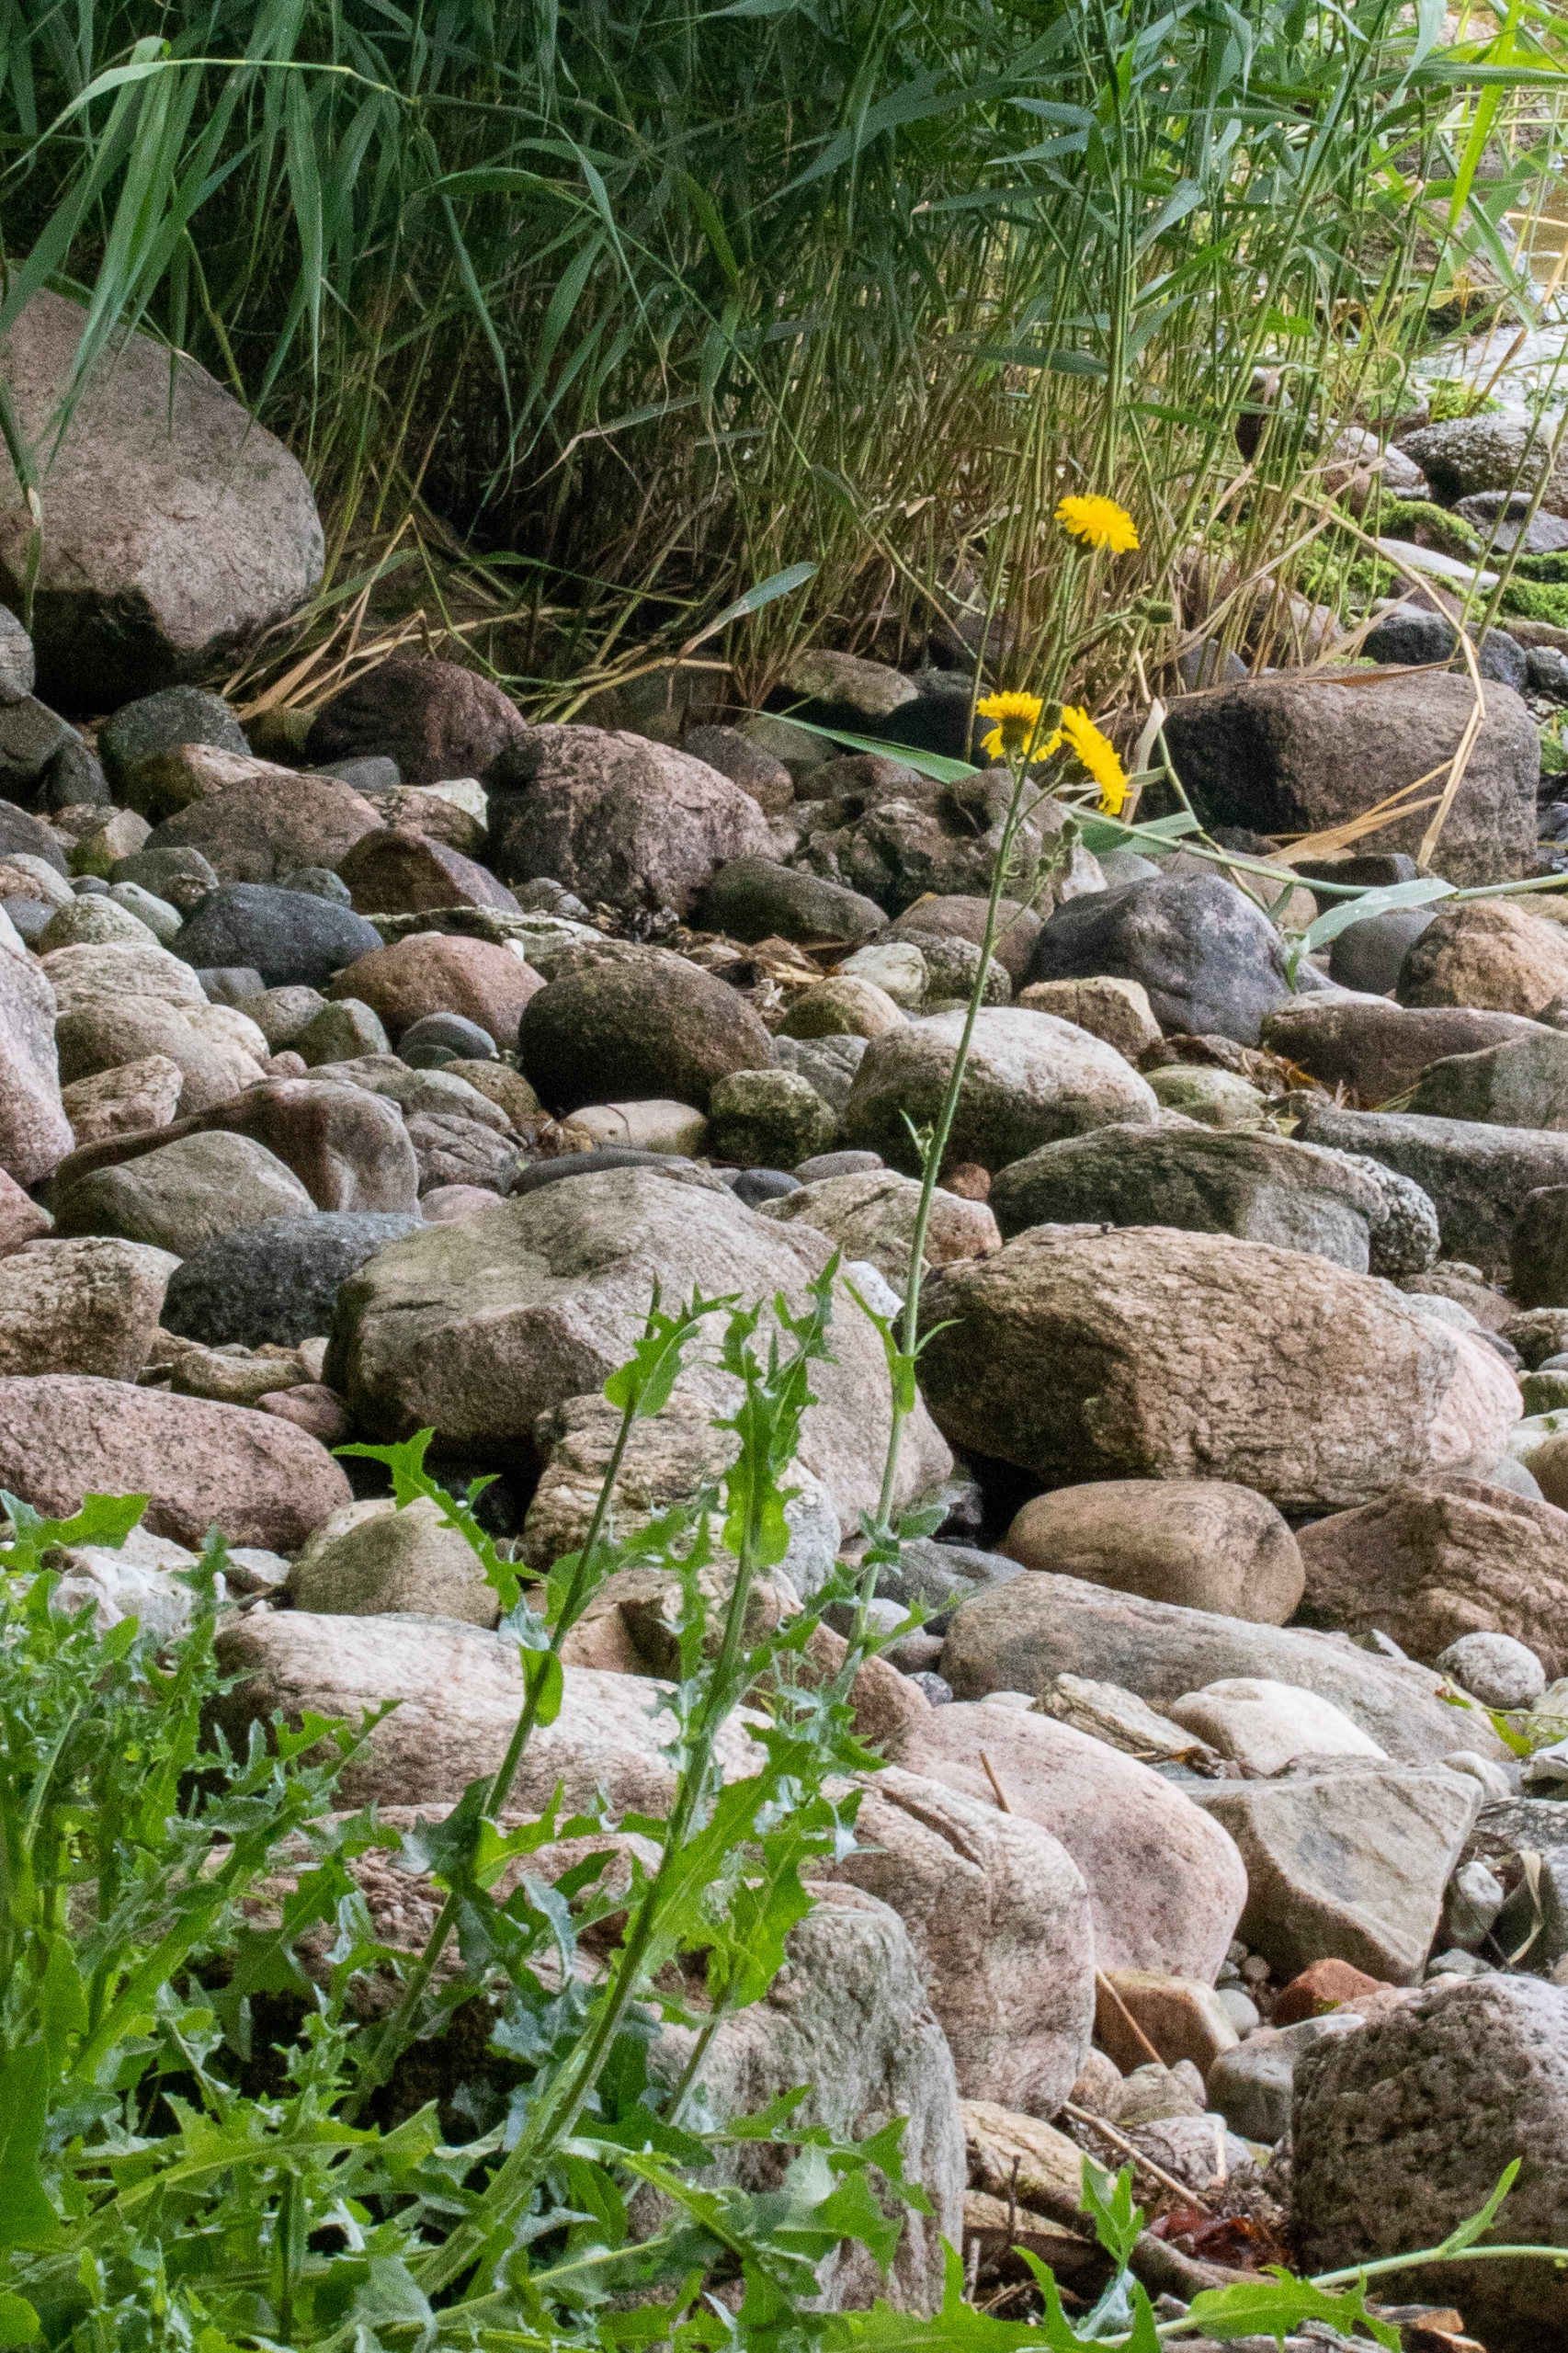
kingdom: Plantae
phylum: Tracheophyta
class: Magnoliopsida
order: Asterales
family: Asteraceae
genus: Sonchus
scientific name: Sonchus arvensis
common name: Ager-svinemælk
